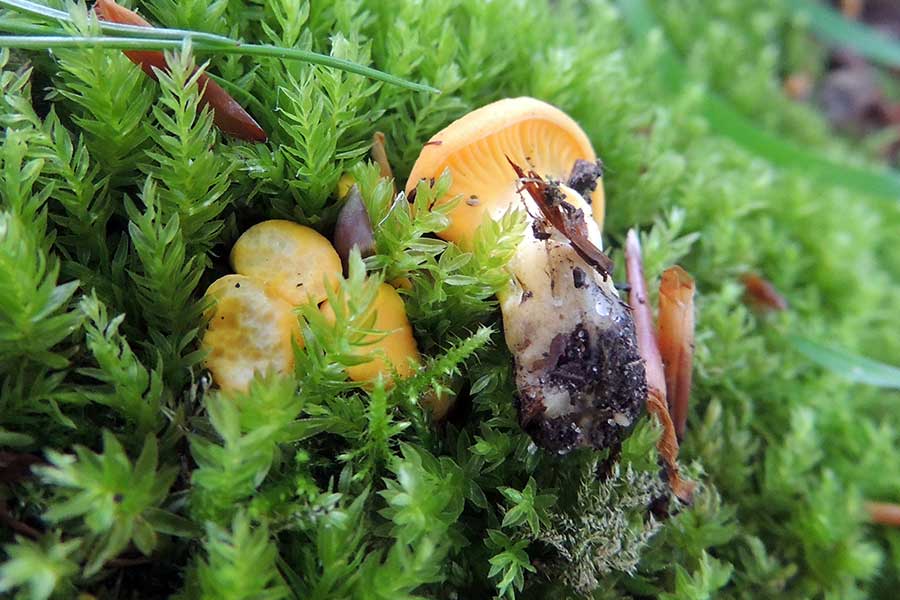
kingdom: Fungi
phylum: Basidiomycota
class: Agaricomycetes
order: Cantharellales
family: Hydnaceae
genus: Cantharellus
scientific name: Cantharellus pallens
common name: bleg kantarel
